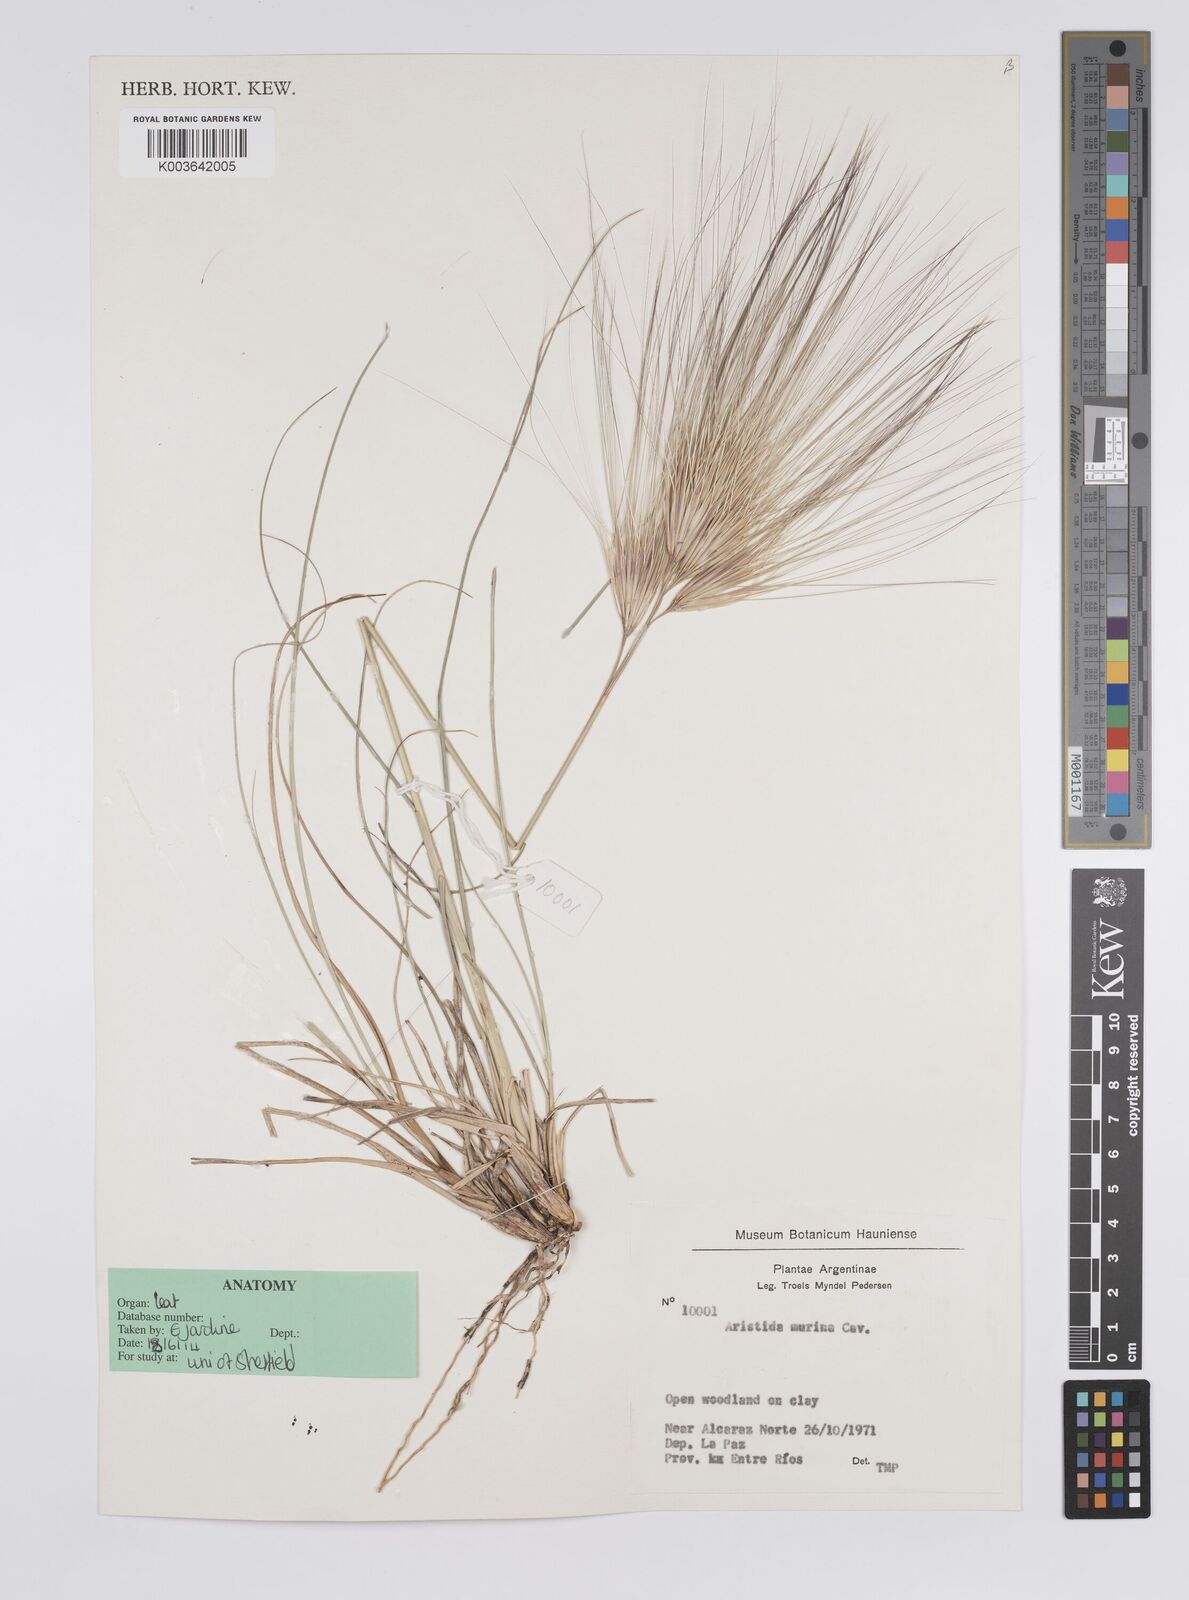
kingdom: Plantae
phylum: Tracheophyta
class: Liliopsida
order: Poales
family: Poaceae
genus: Aristida
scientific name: Aristida murina
